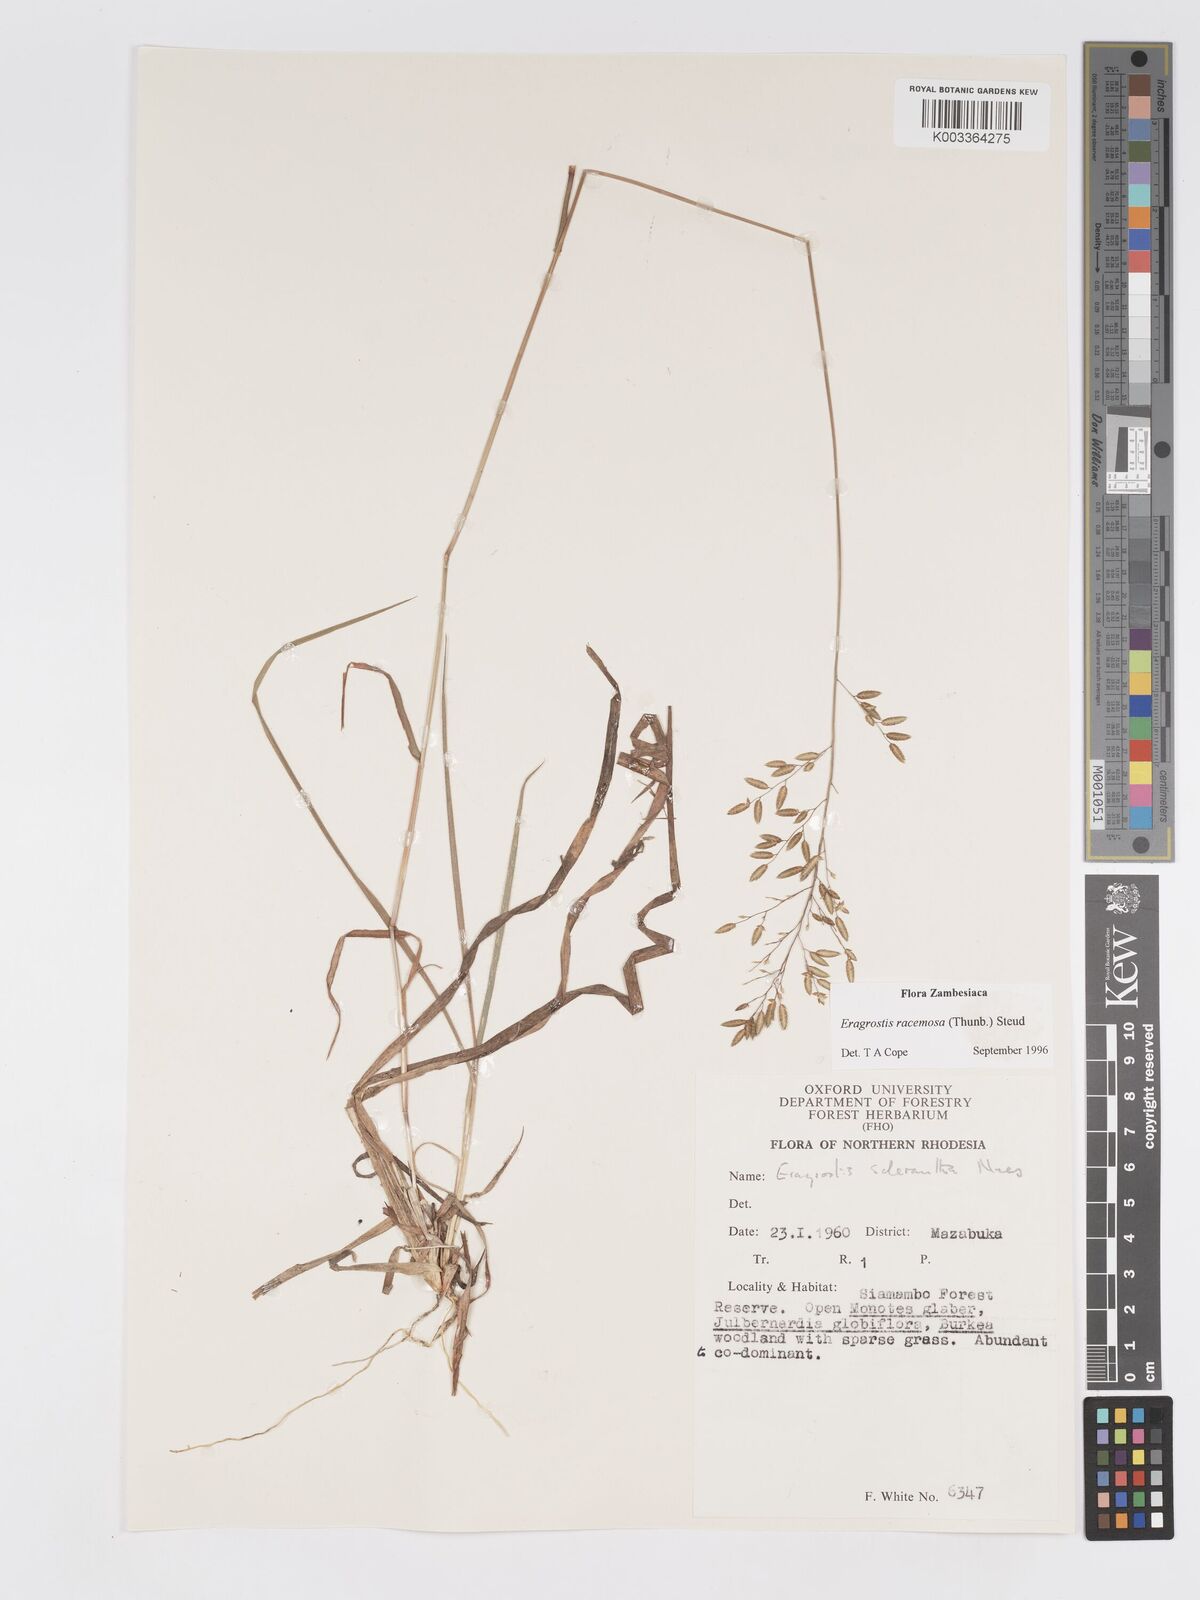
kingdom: Plantae
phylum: Tracheophyta
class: Liliopsida
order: Poales
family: Poaceae
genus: Eragrostis
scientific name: Eragrostis racemosa
